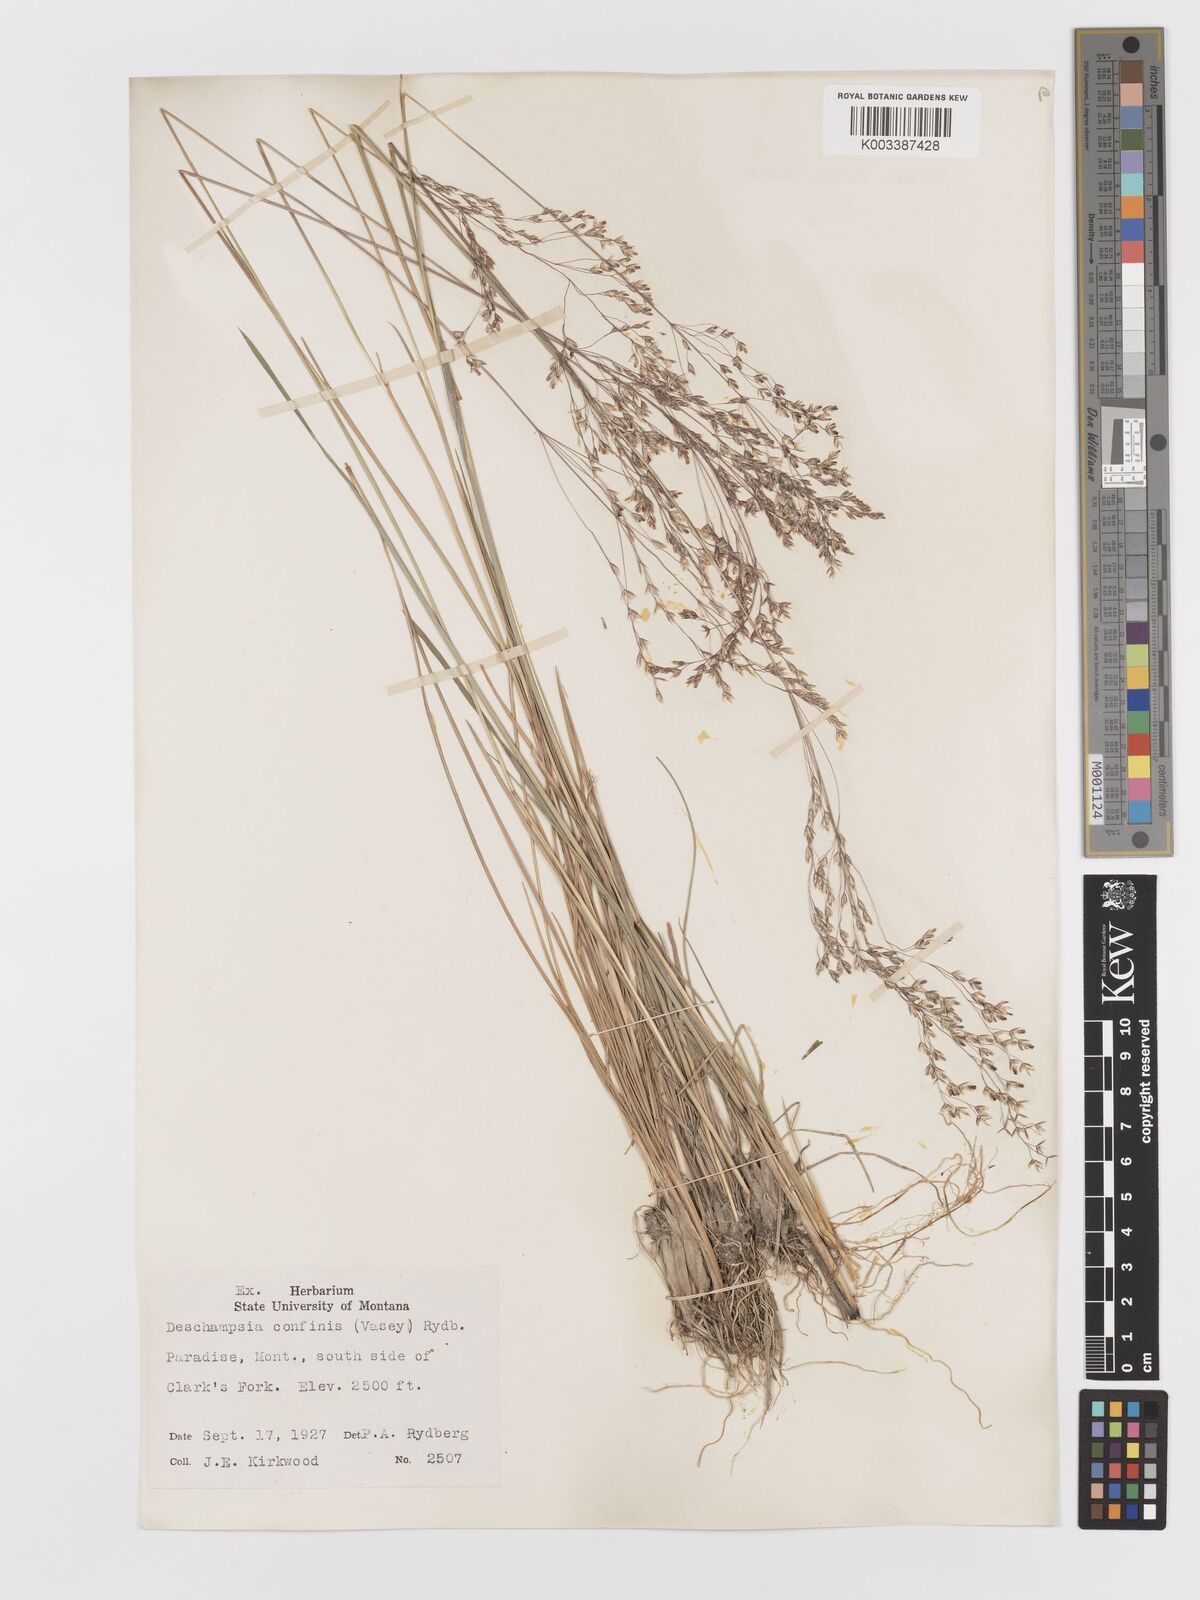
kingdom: Plantae
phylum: Tracheophyta
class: Liliopsida
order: Poales
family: Poaceae
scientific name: Poaceae
